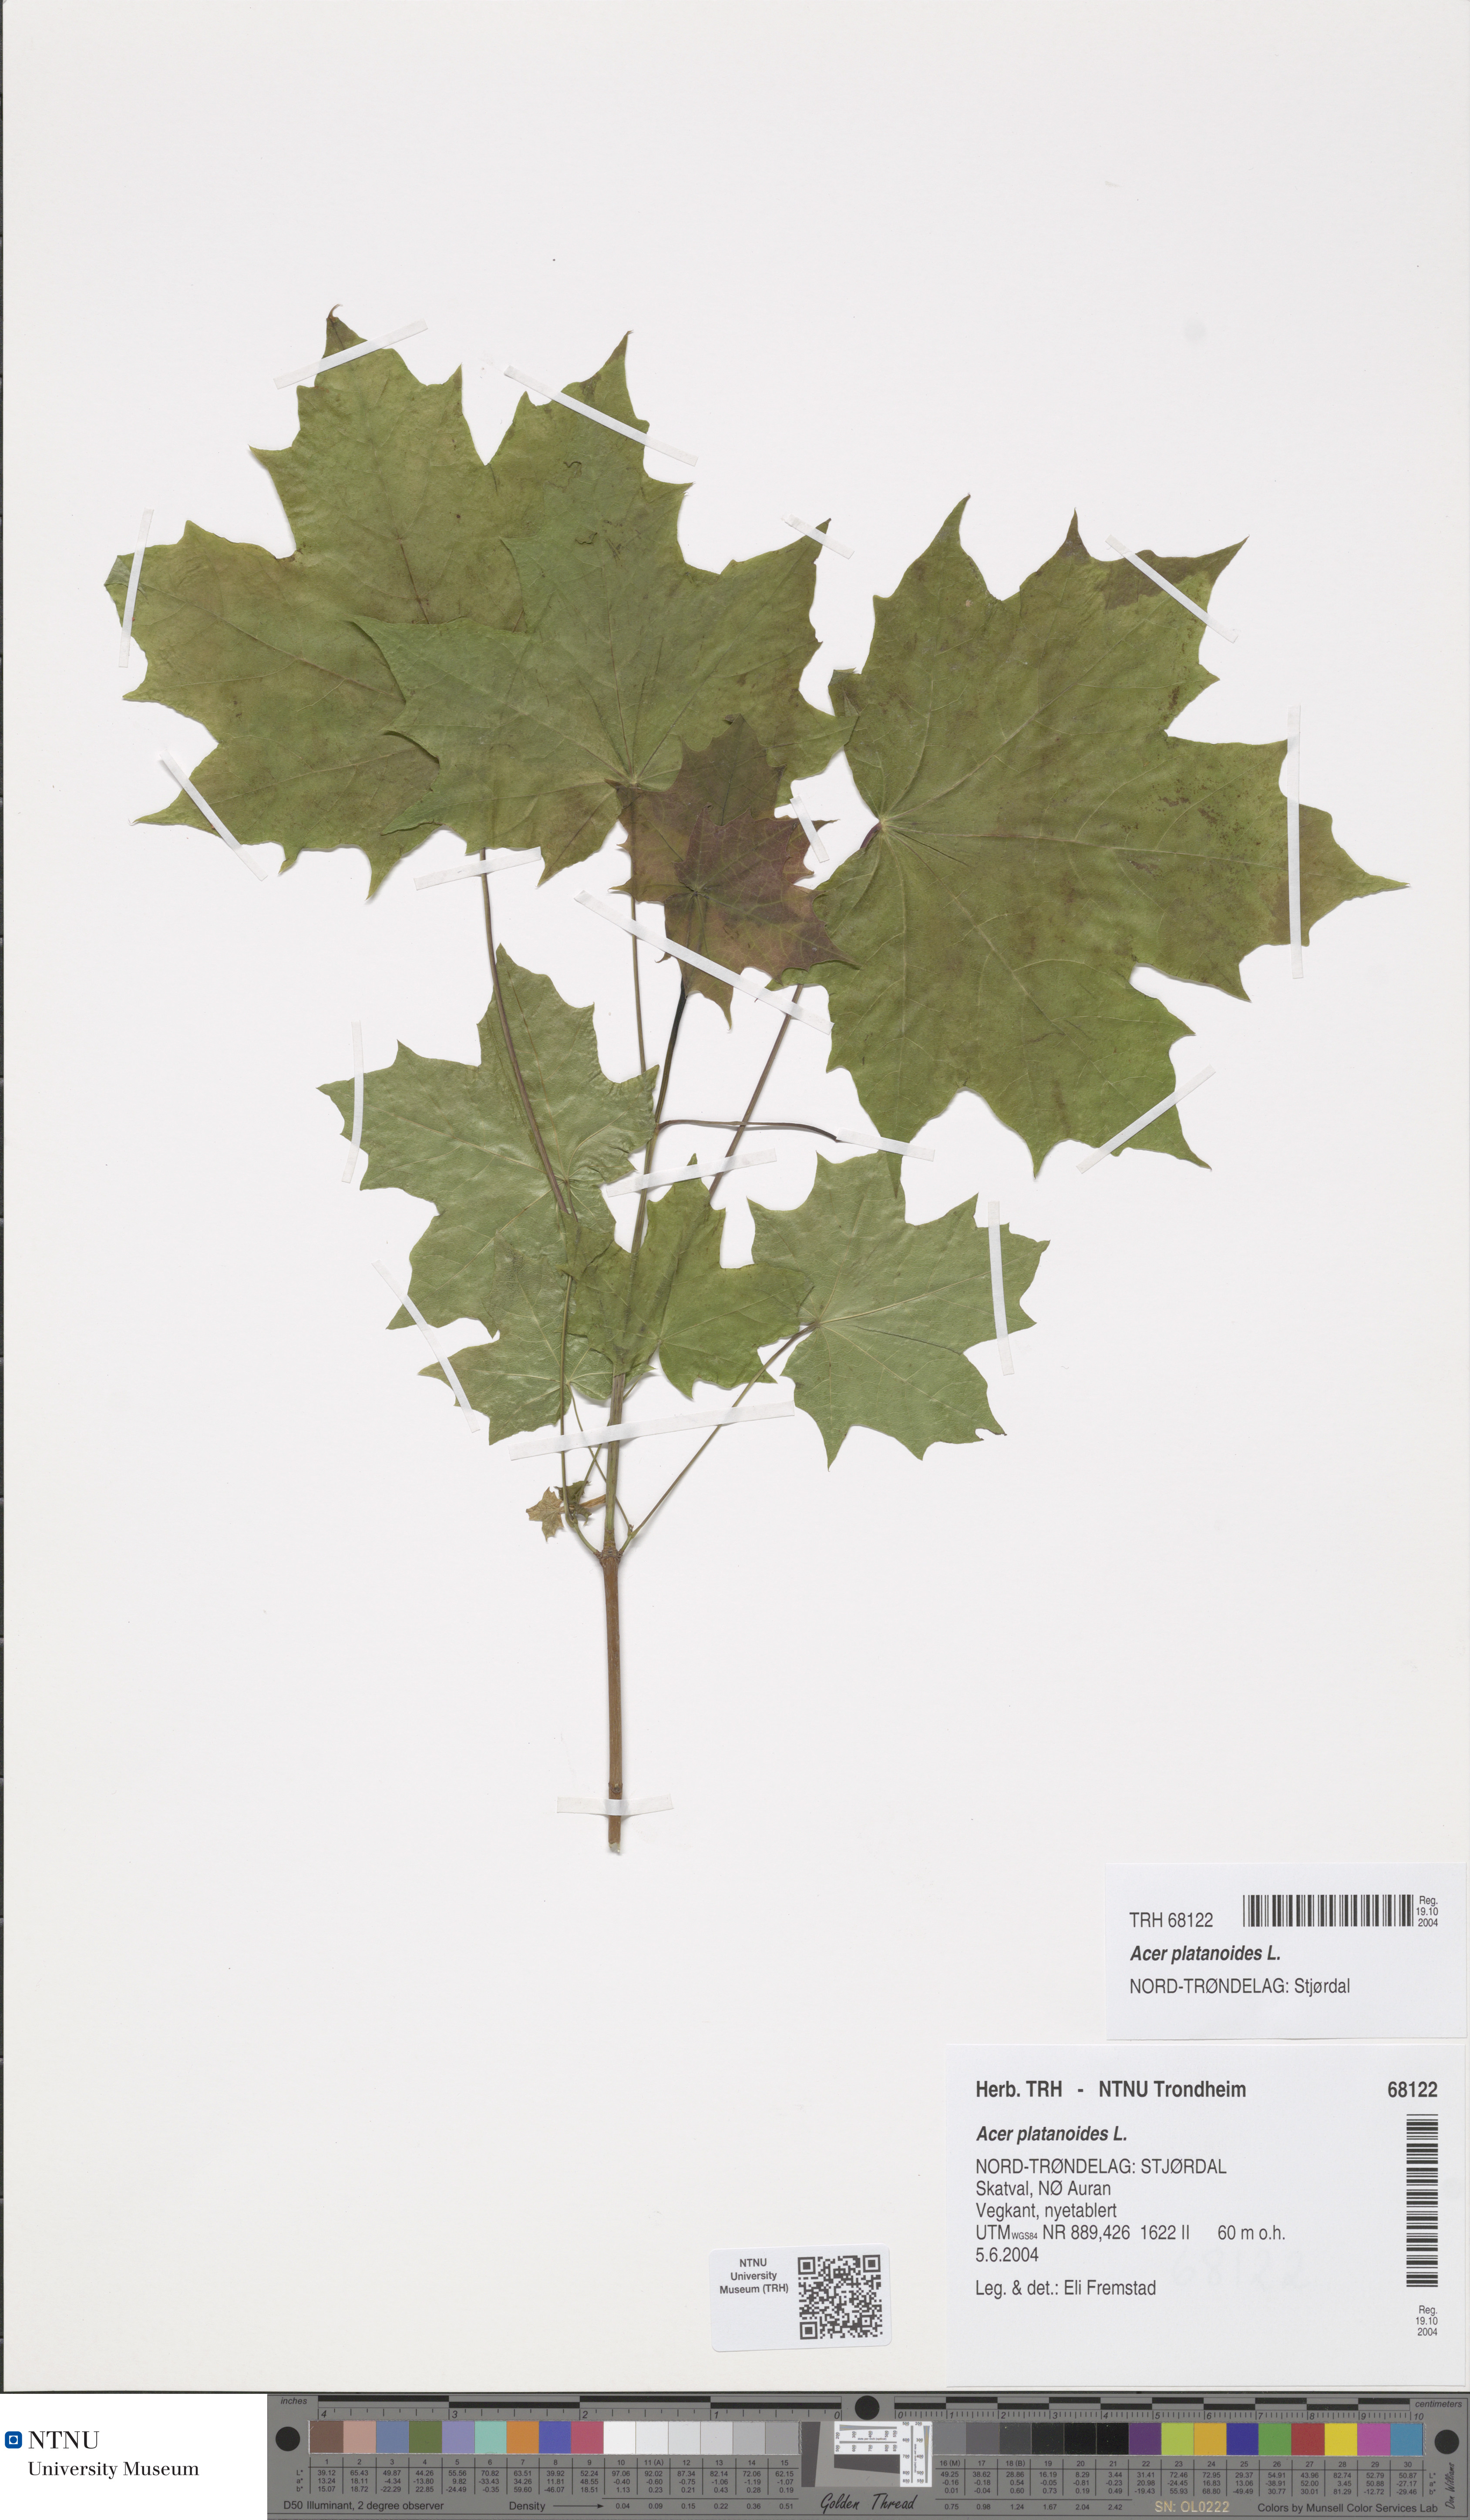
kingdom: Plantae
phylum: Tracheophyta
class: Magnoliopsida
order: Sapindales
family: Sapindaceae
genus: Acer
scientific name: Acer platanoides
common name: Norway maple
